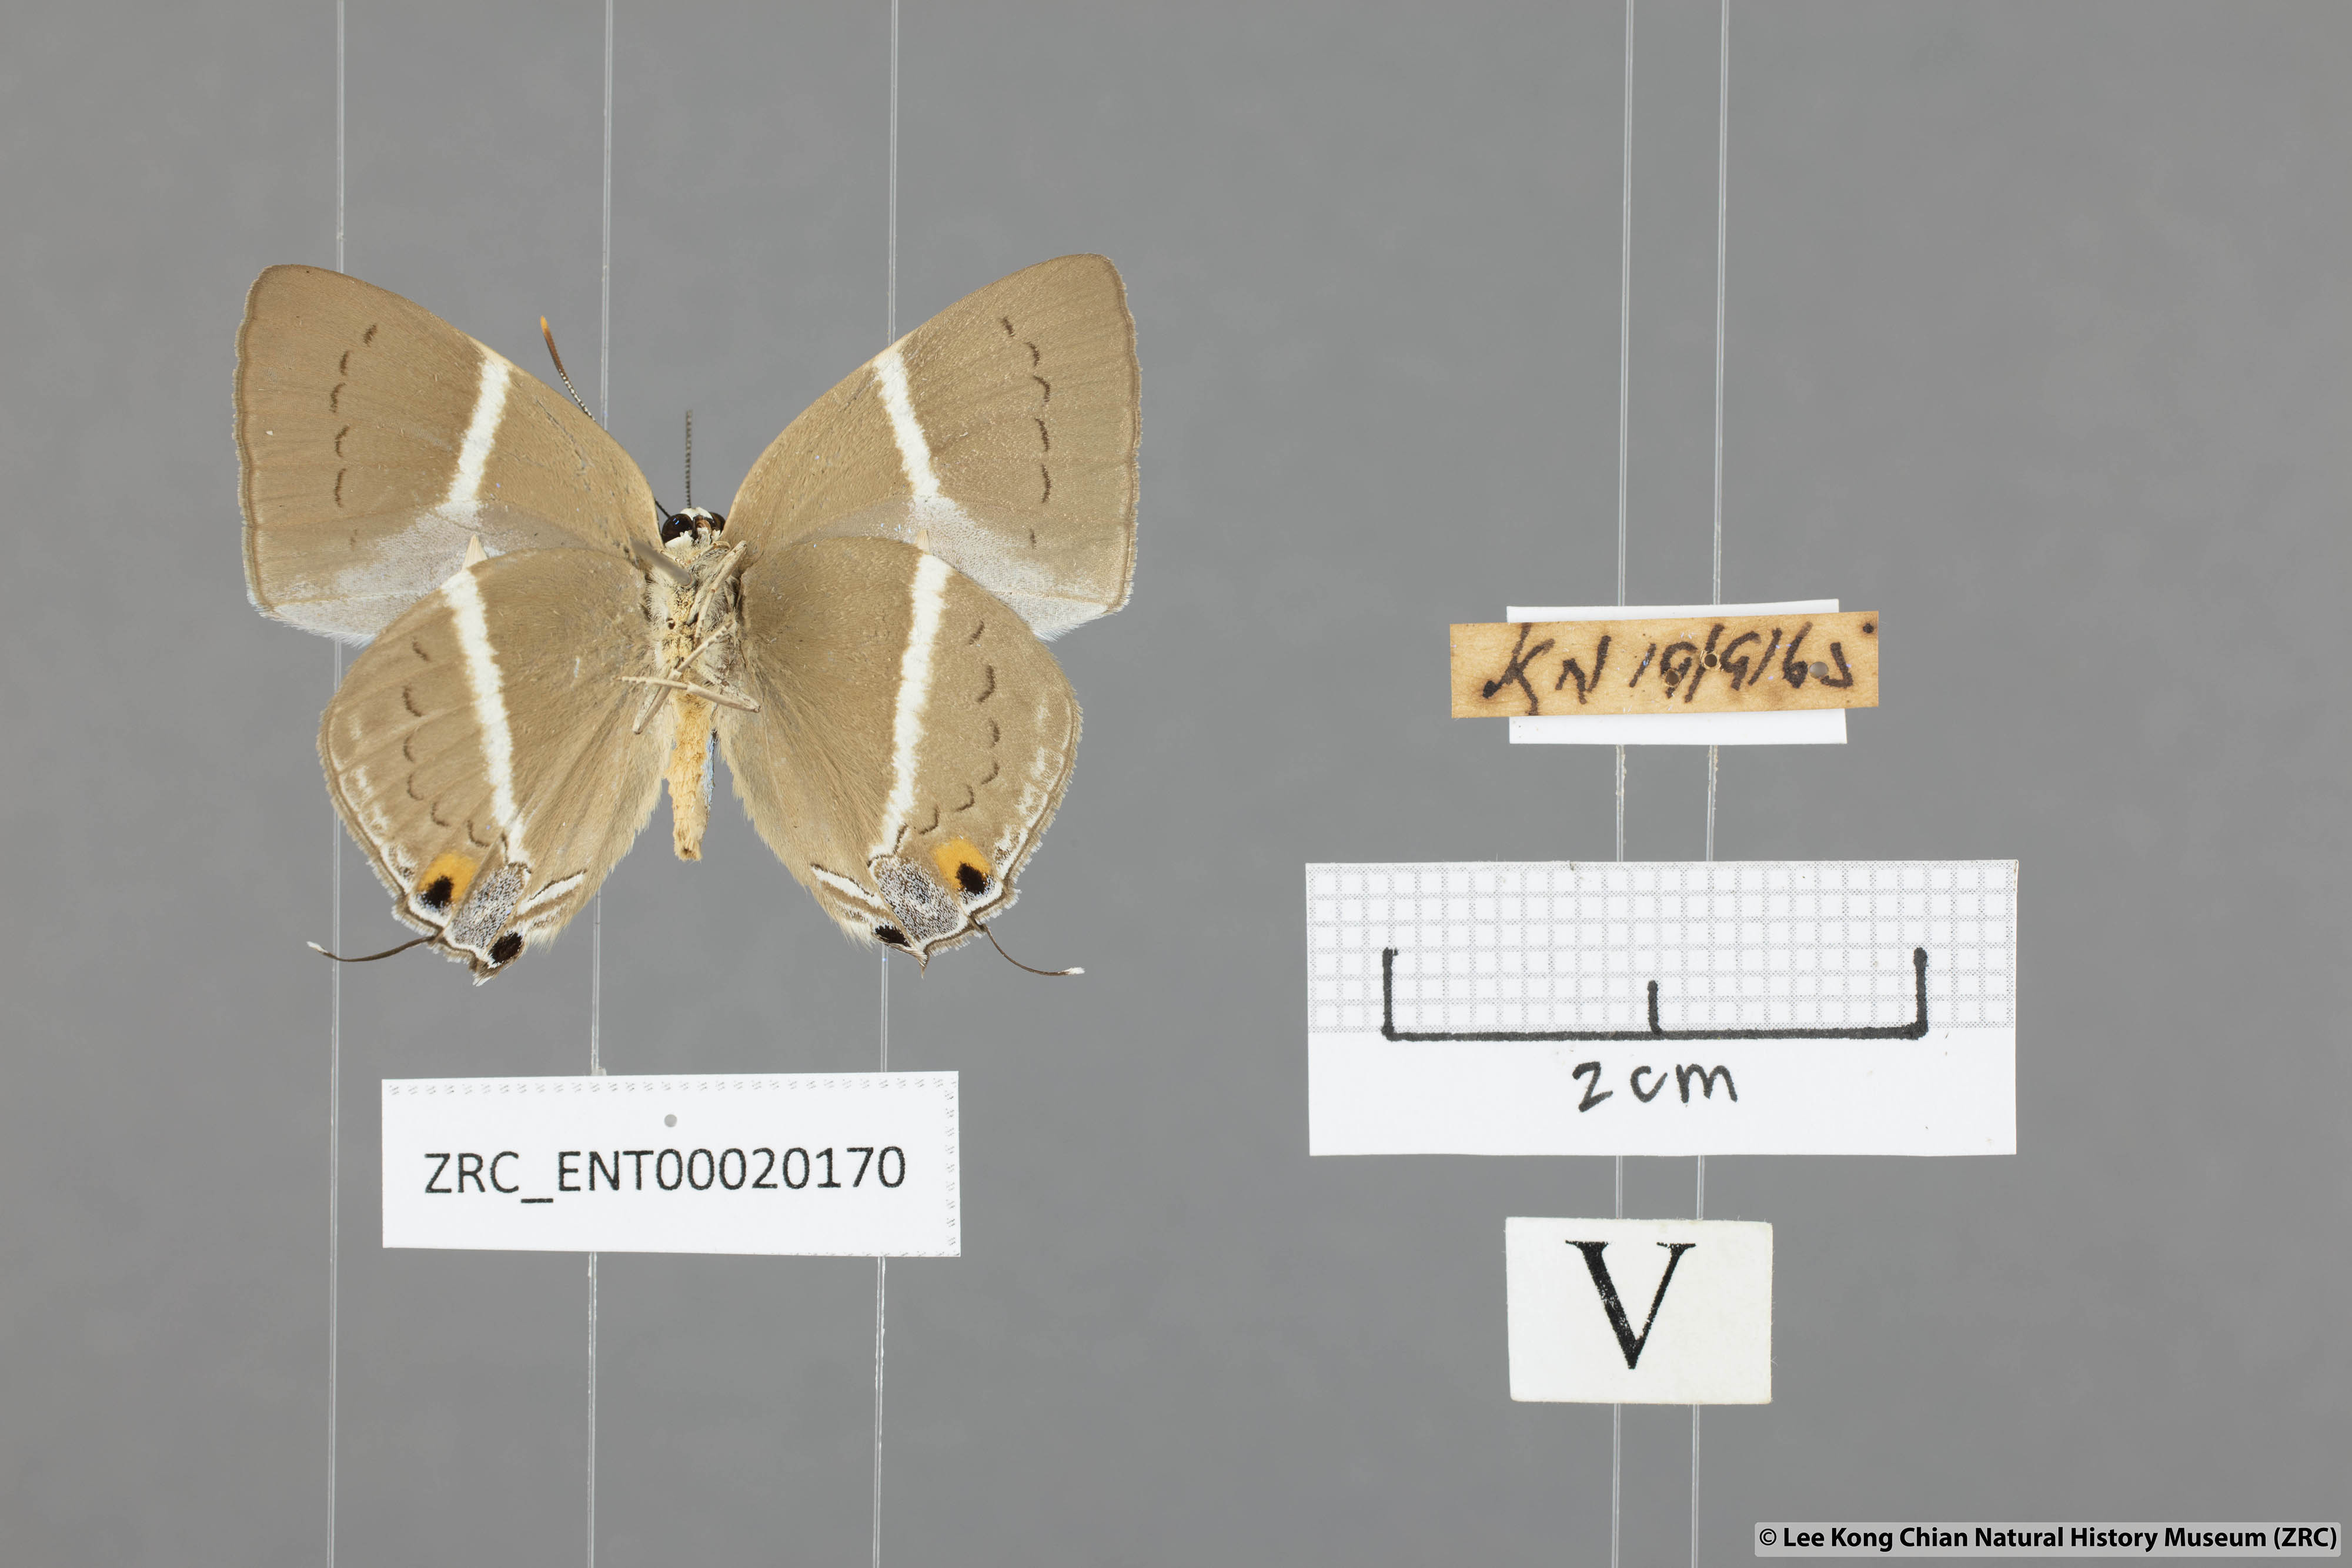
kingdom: Animalia
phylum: Arthropoda
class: Insecta
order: Lepidoptera
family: Lycaenidae
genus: Dacalana
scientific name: Dacalana vidura
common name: Medium-branded royal
